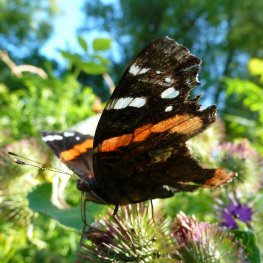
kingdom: Animalia
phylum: Arthropoda
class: Insecta
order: Lepidoptera
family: Nymphalidae
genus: Vanessa
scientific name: Vanessa atalanta
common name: Red Admiral
